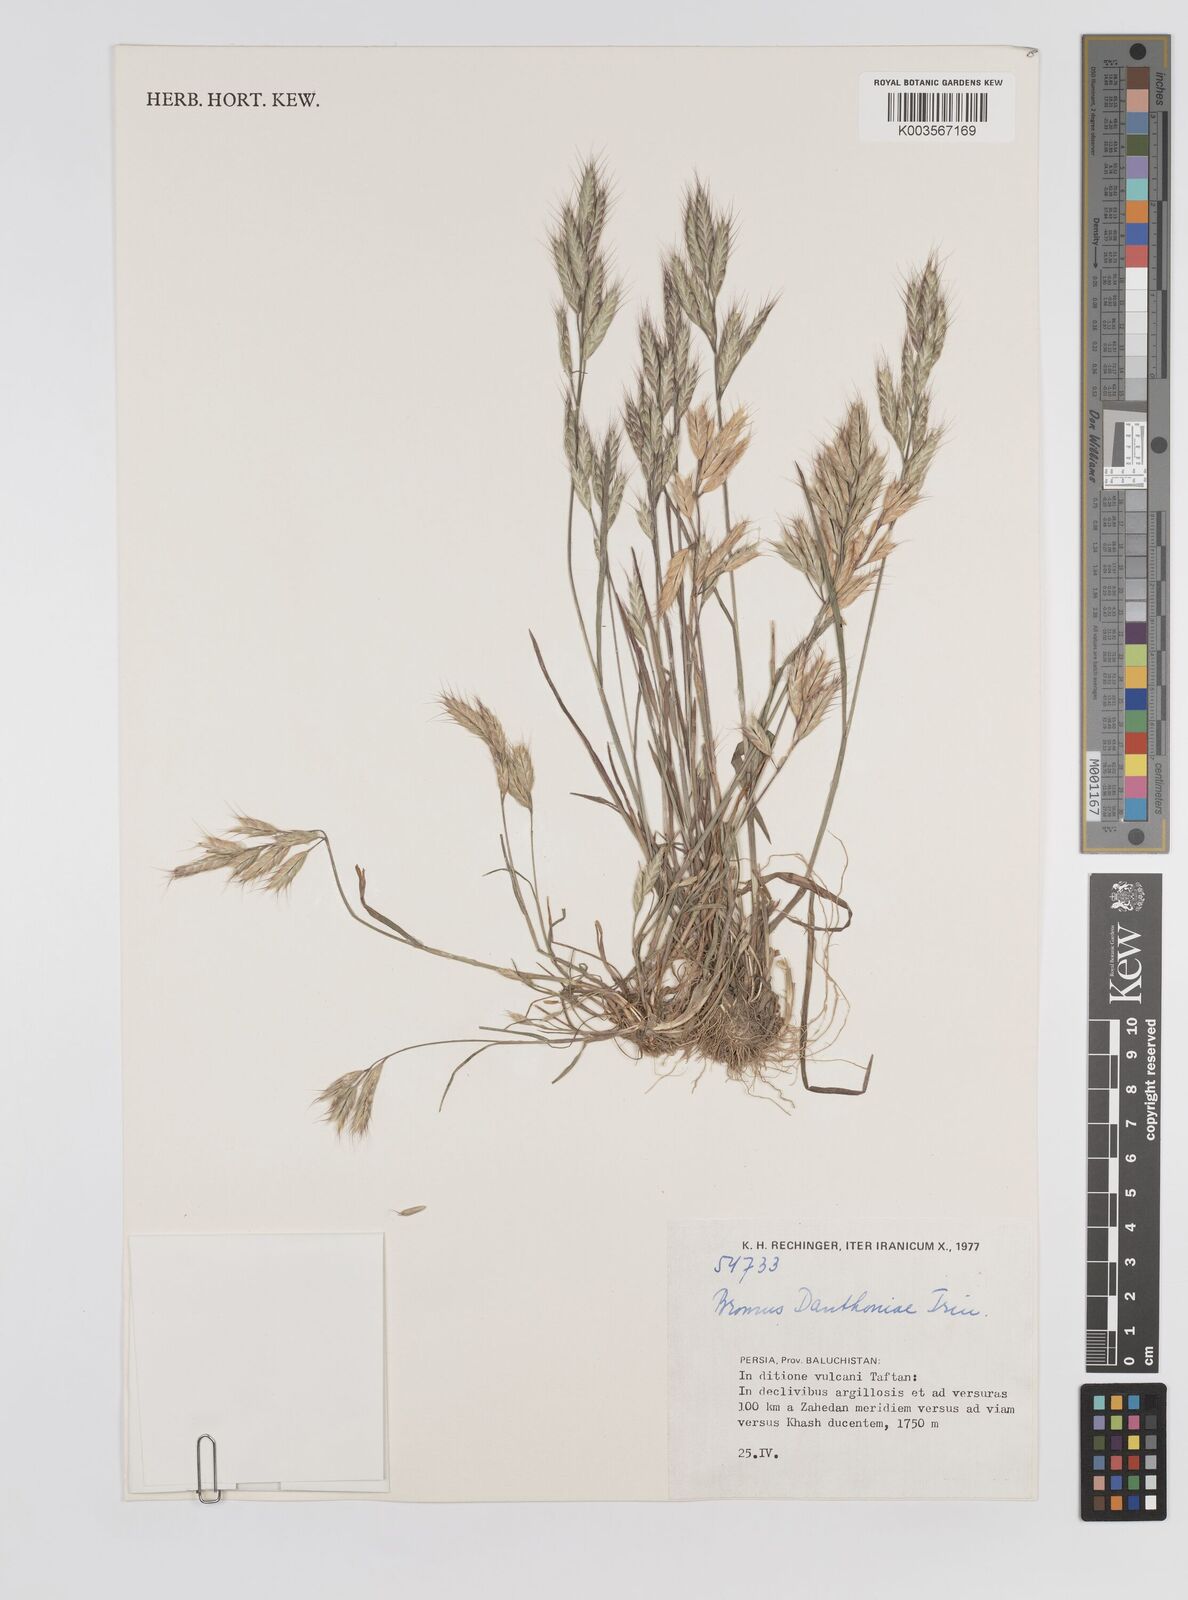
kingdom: Plantae
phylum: Tracheophyta
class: Liliopsida
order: Poales
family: Poaceae
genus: Bromus
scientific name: Bromus danthoniae
